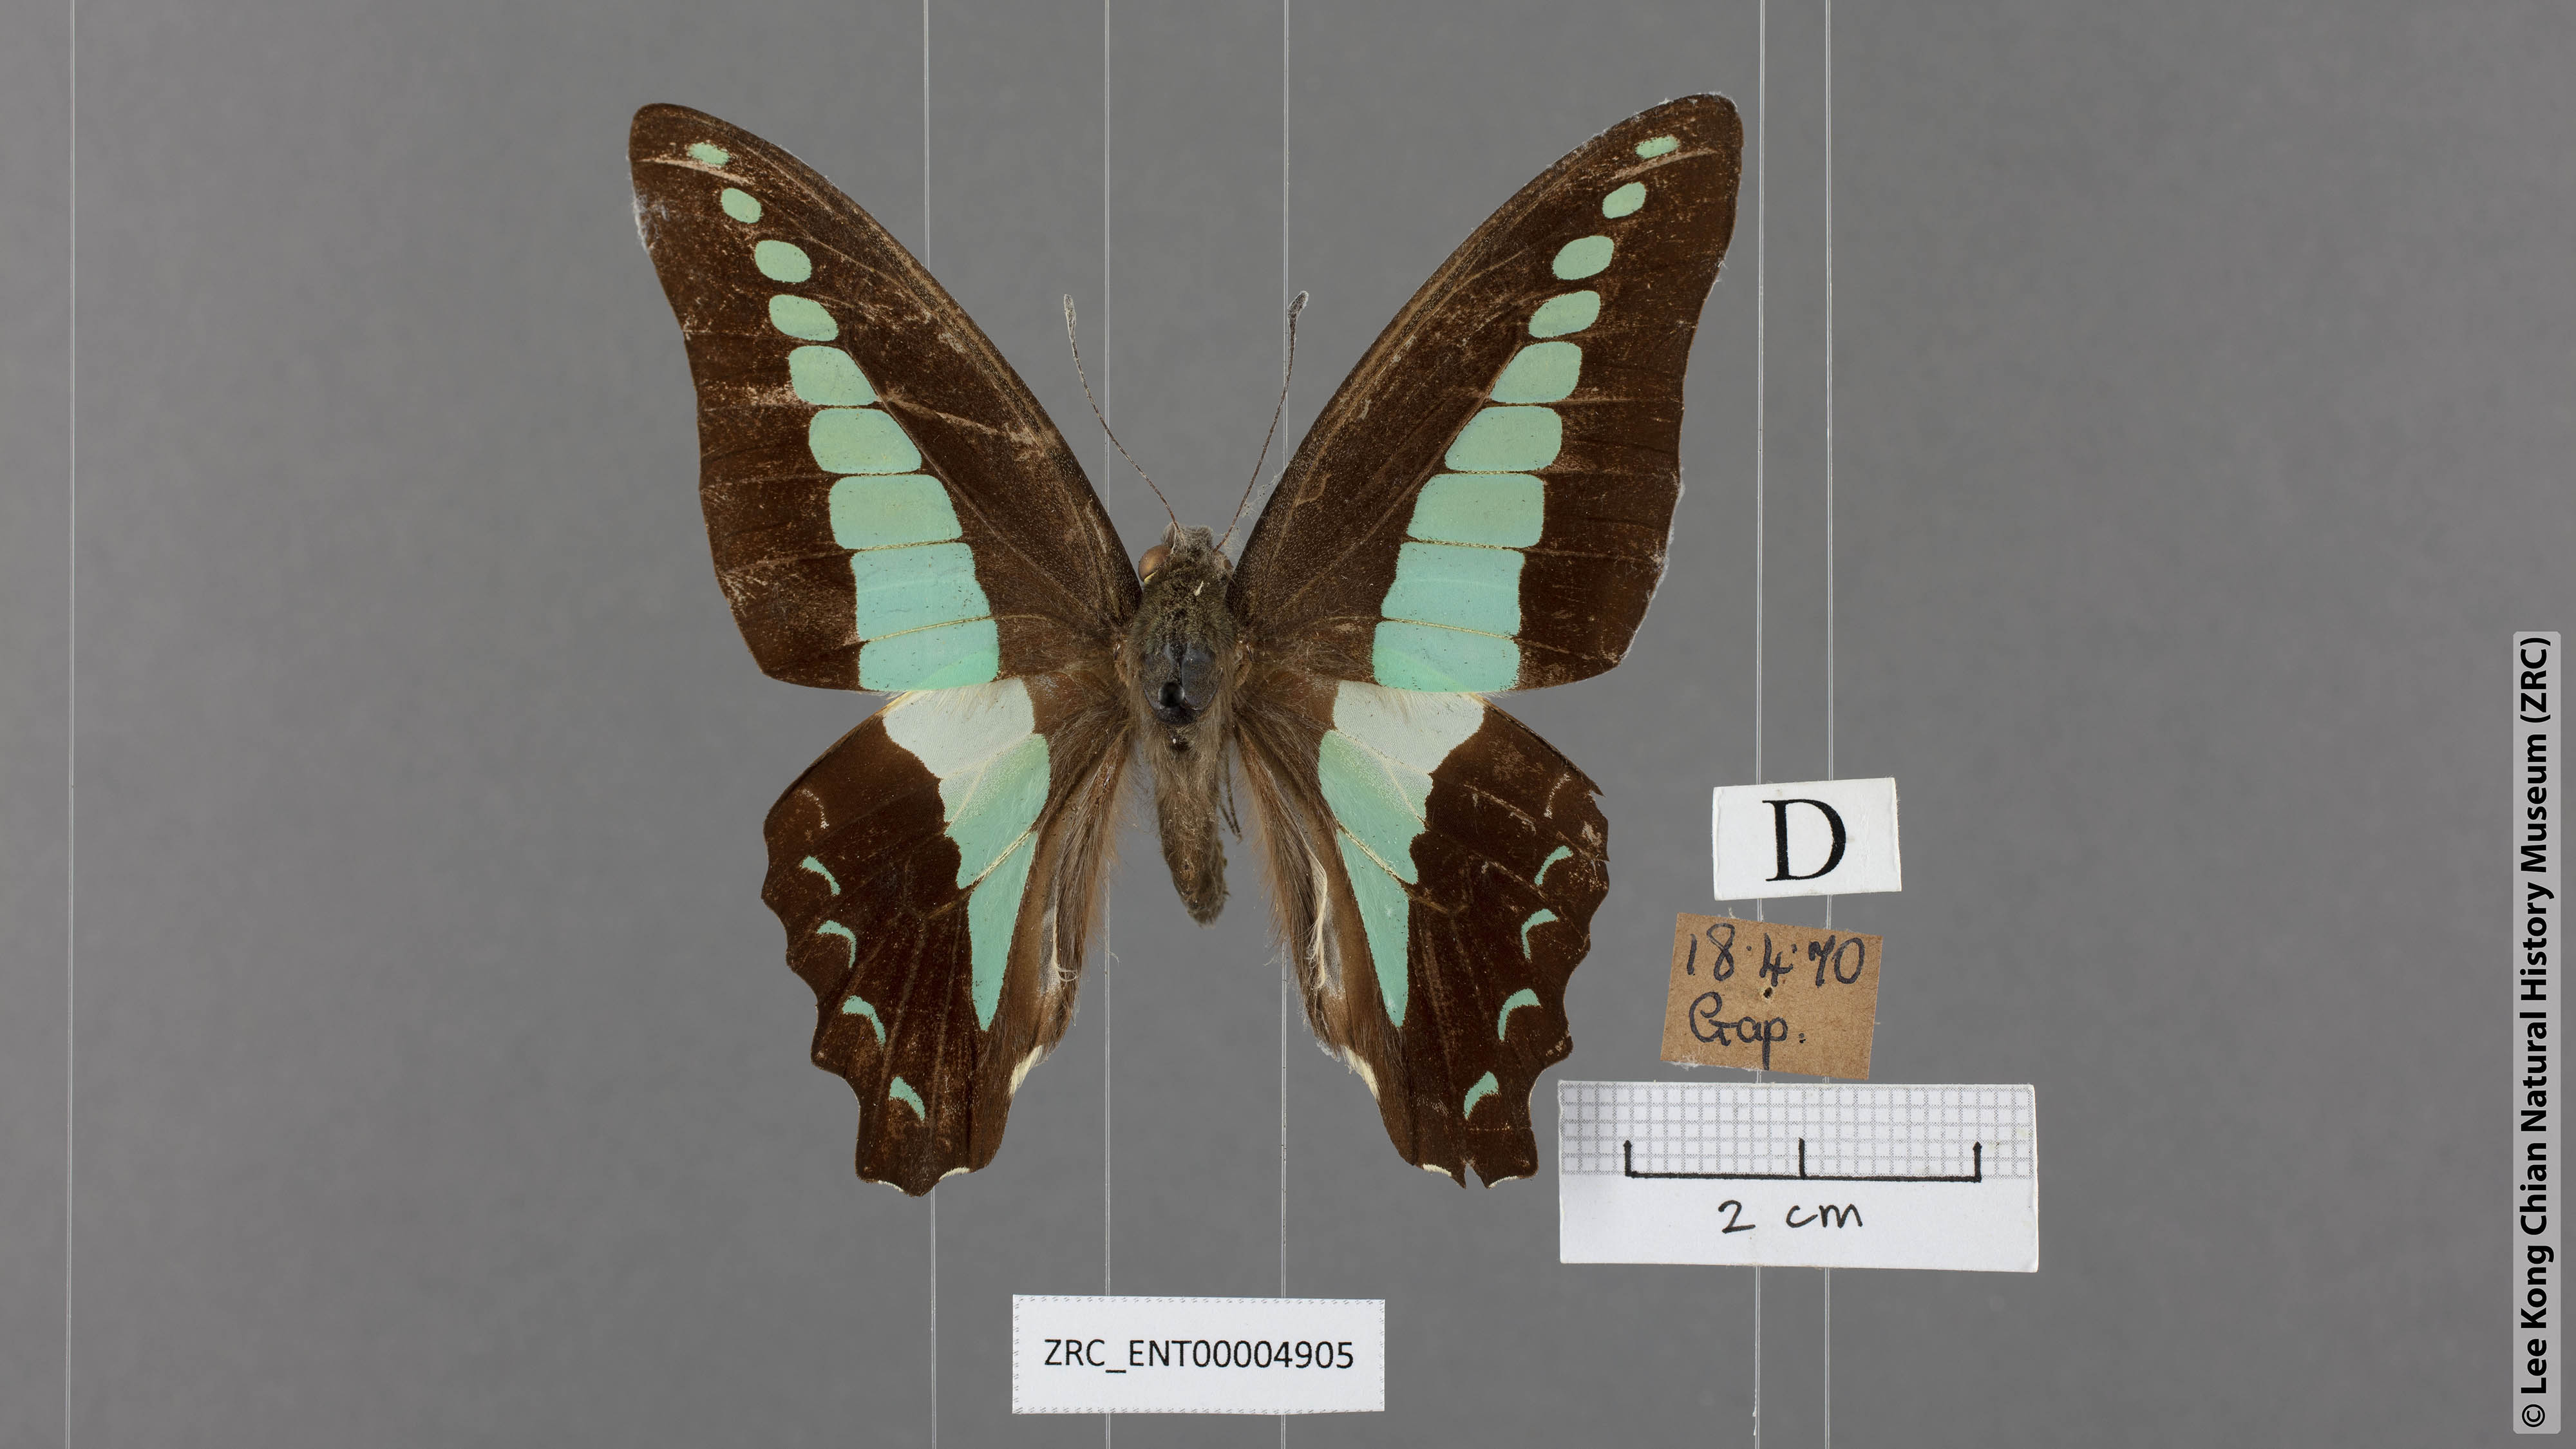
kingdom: Fungi
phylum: Ascomycota
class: Sordariomycetes
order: Microascales
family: Microascaceae
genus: Graphium
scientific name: Graphium sarpedon
